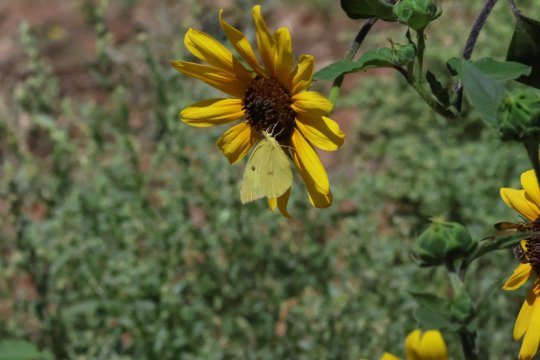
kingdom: Animalia
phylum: Arthropoda
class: Insecta
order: Lepidoptera
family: Pieridae
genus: Zerene
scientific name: Zerene cesonia
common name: Southern Dogface
